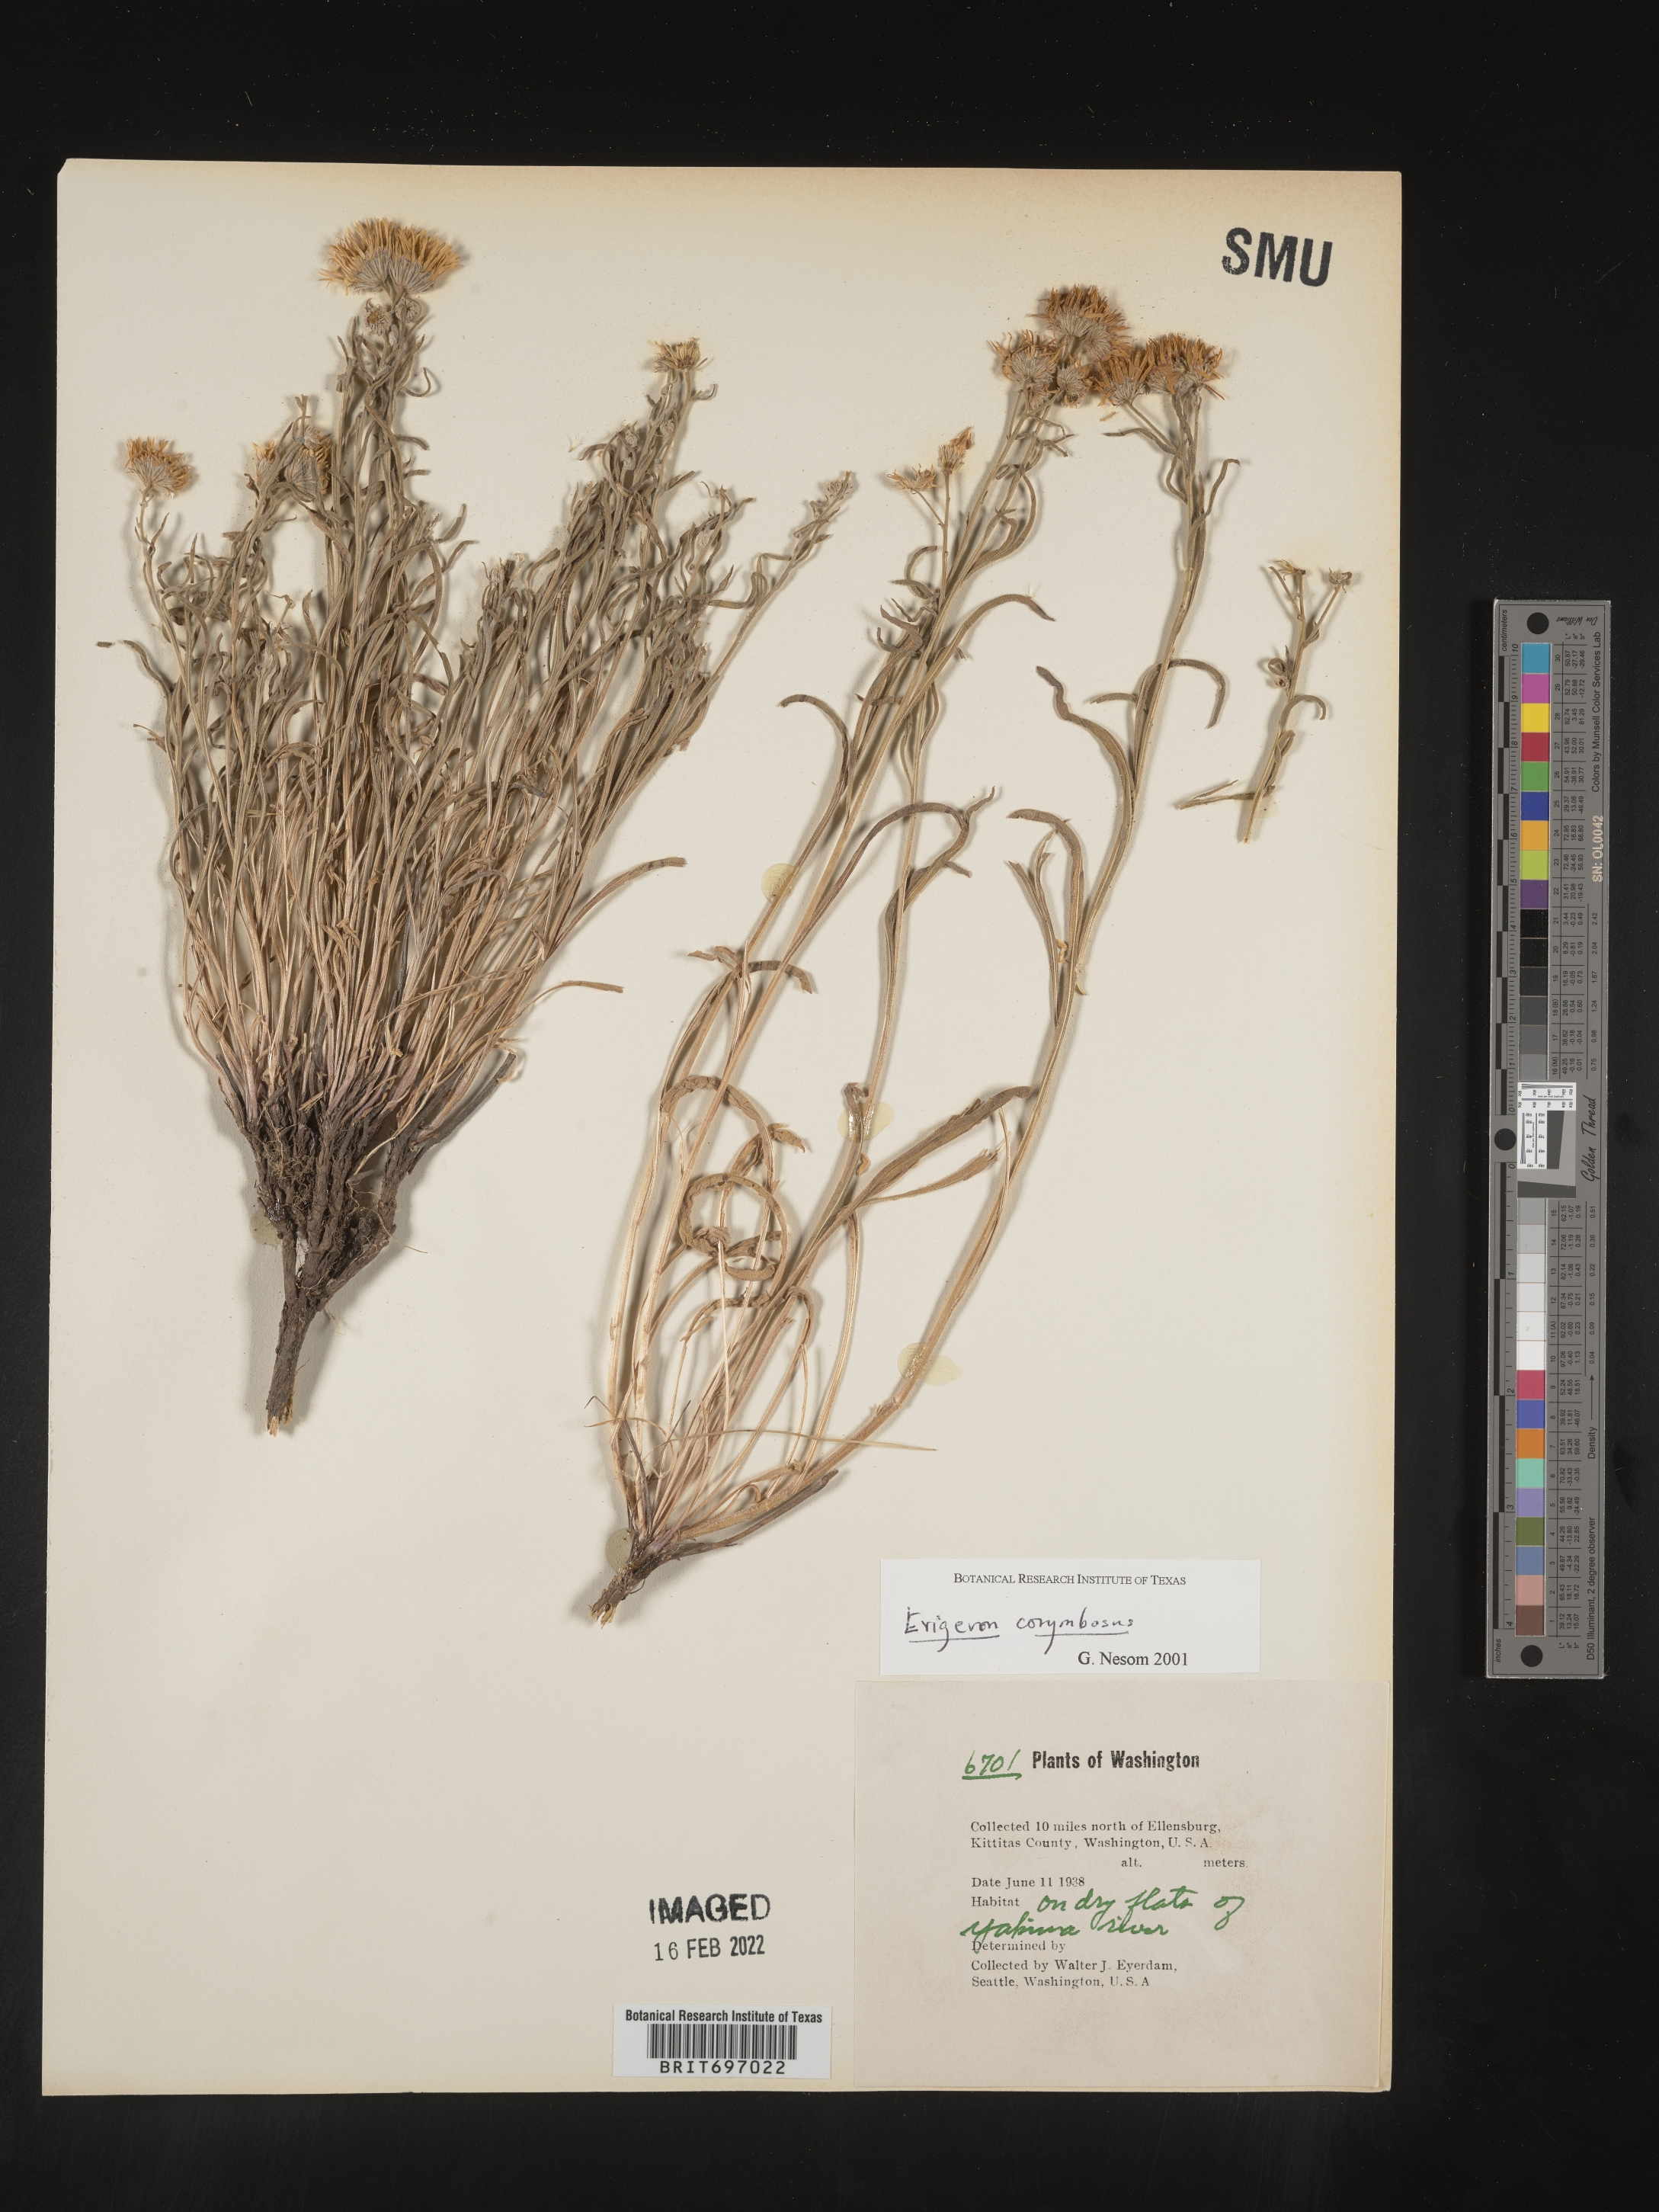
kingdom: Plantae
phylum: Tracheophyta
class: Magnoliopsida
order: Asterales
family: Asteraceae
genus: Erigeron
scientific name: Erigeron corymbosus
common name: Longleaf fleabane
